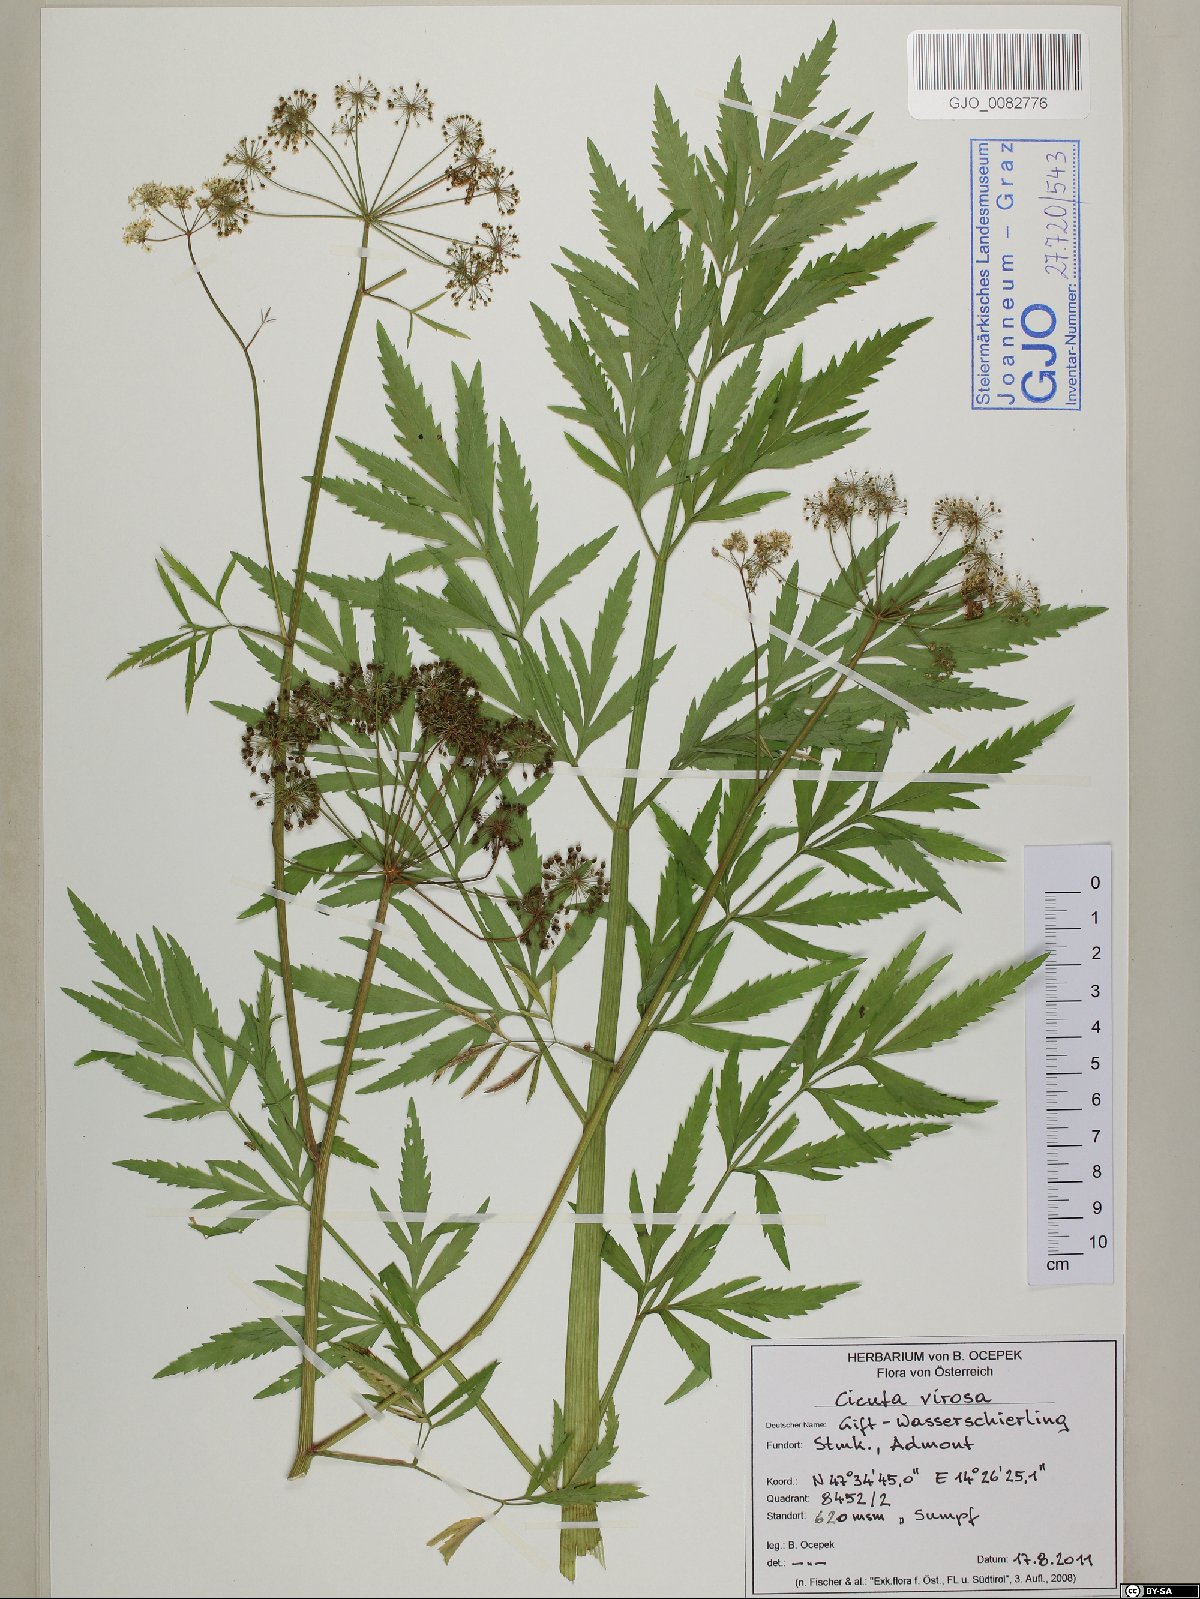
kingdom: Plantae
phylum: Tracheophyta
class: Magnoliopsida
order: Apiales
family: Apiaceae
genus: Cicuta
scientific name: Cicuta virosa
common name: Cowbane
